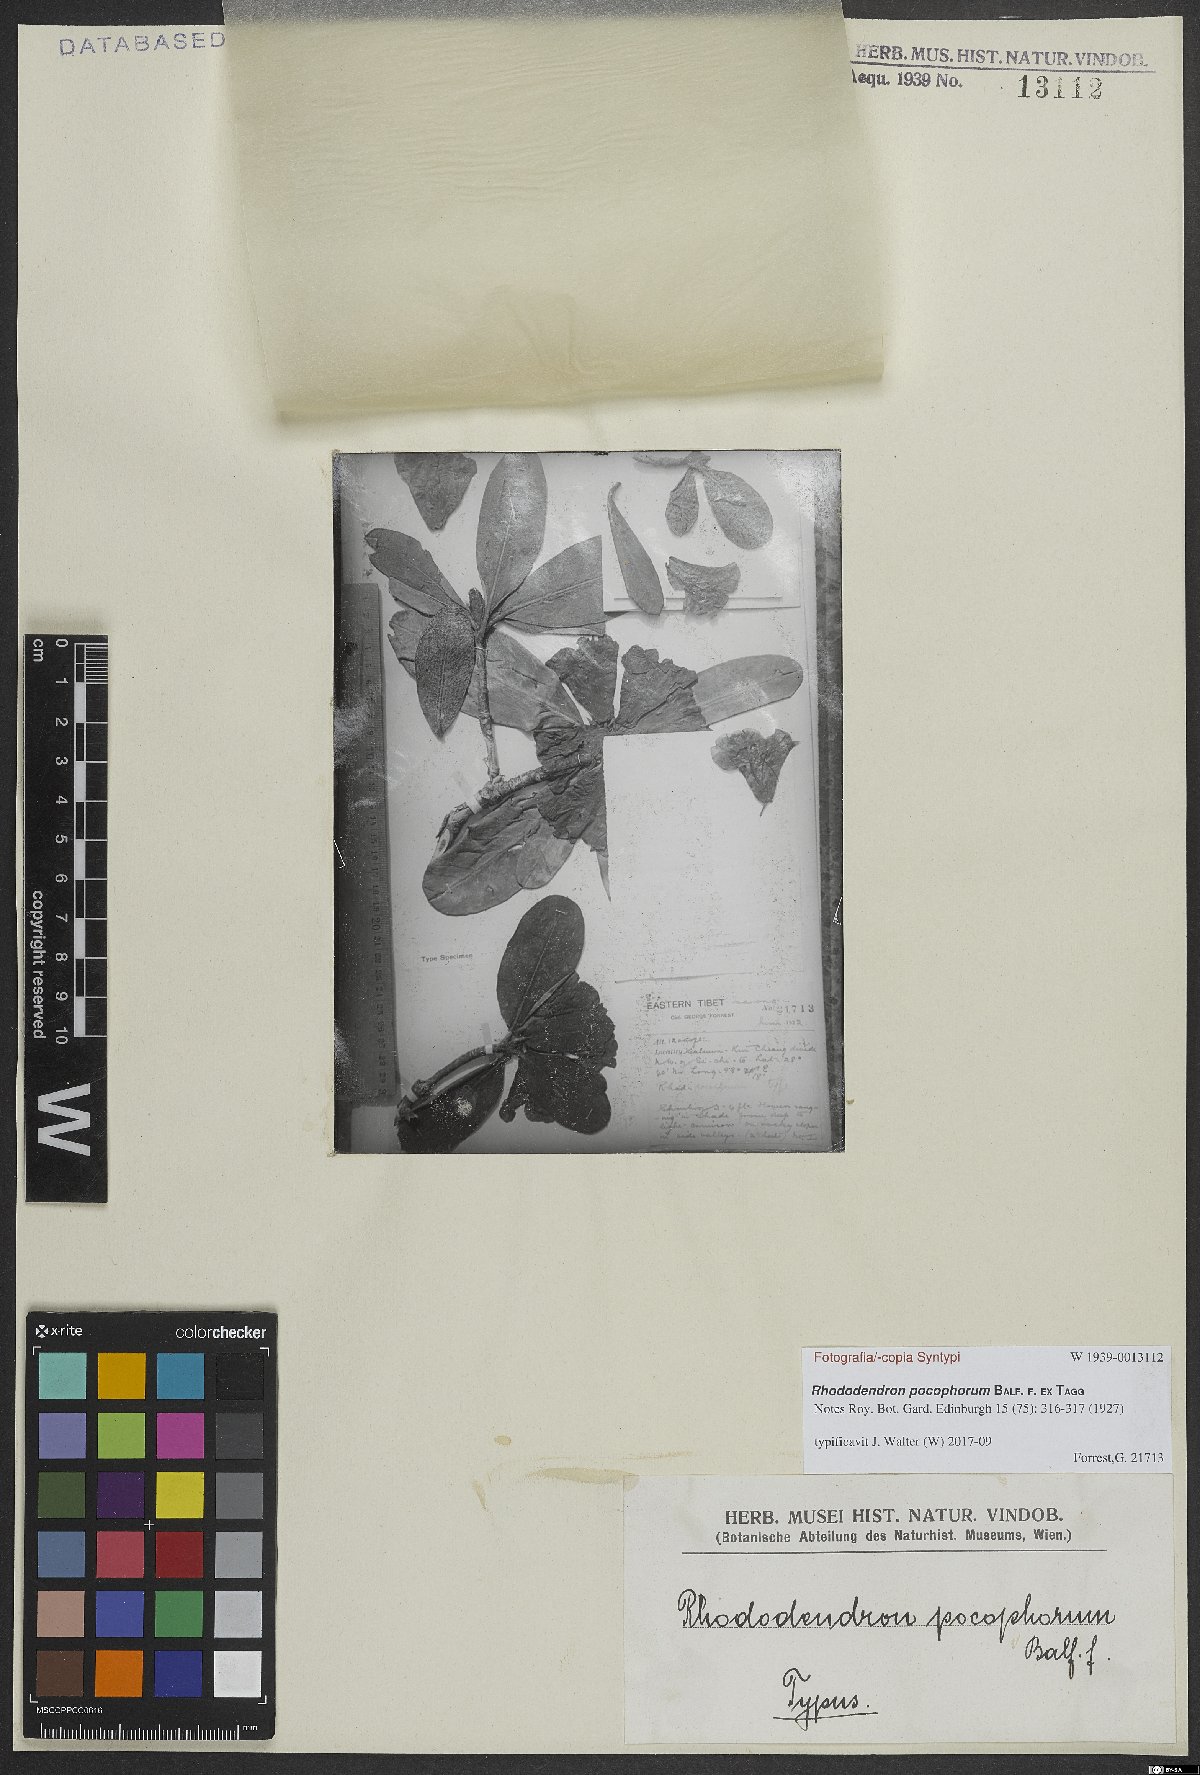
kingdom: Plantae
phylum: Tracheophyta
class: Magnoliopsida
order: Ericales
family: Ericaceae
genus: Rhododendron
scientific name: Rhododendron pocophorum
